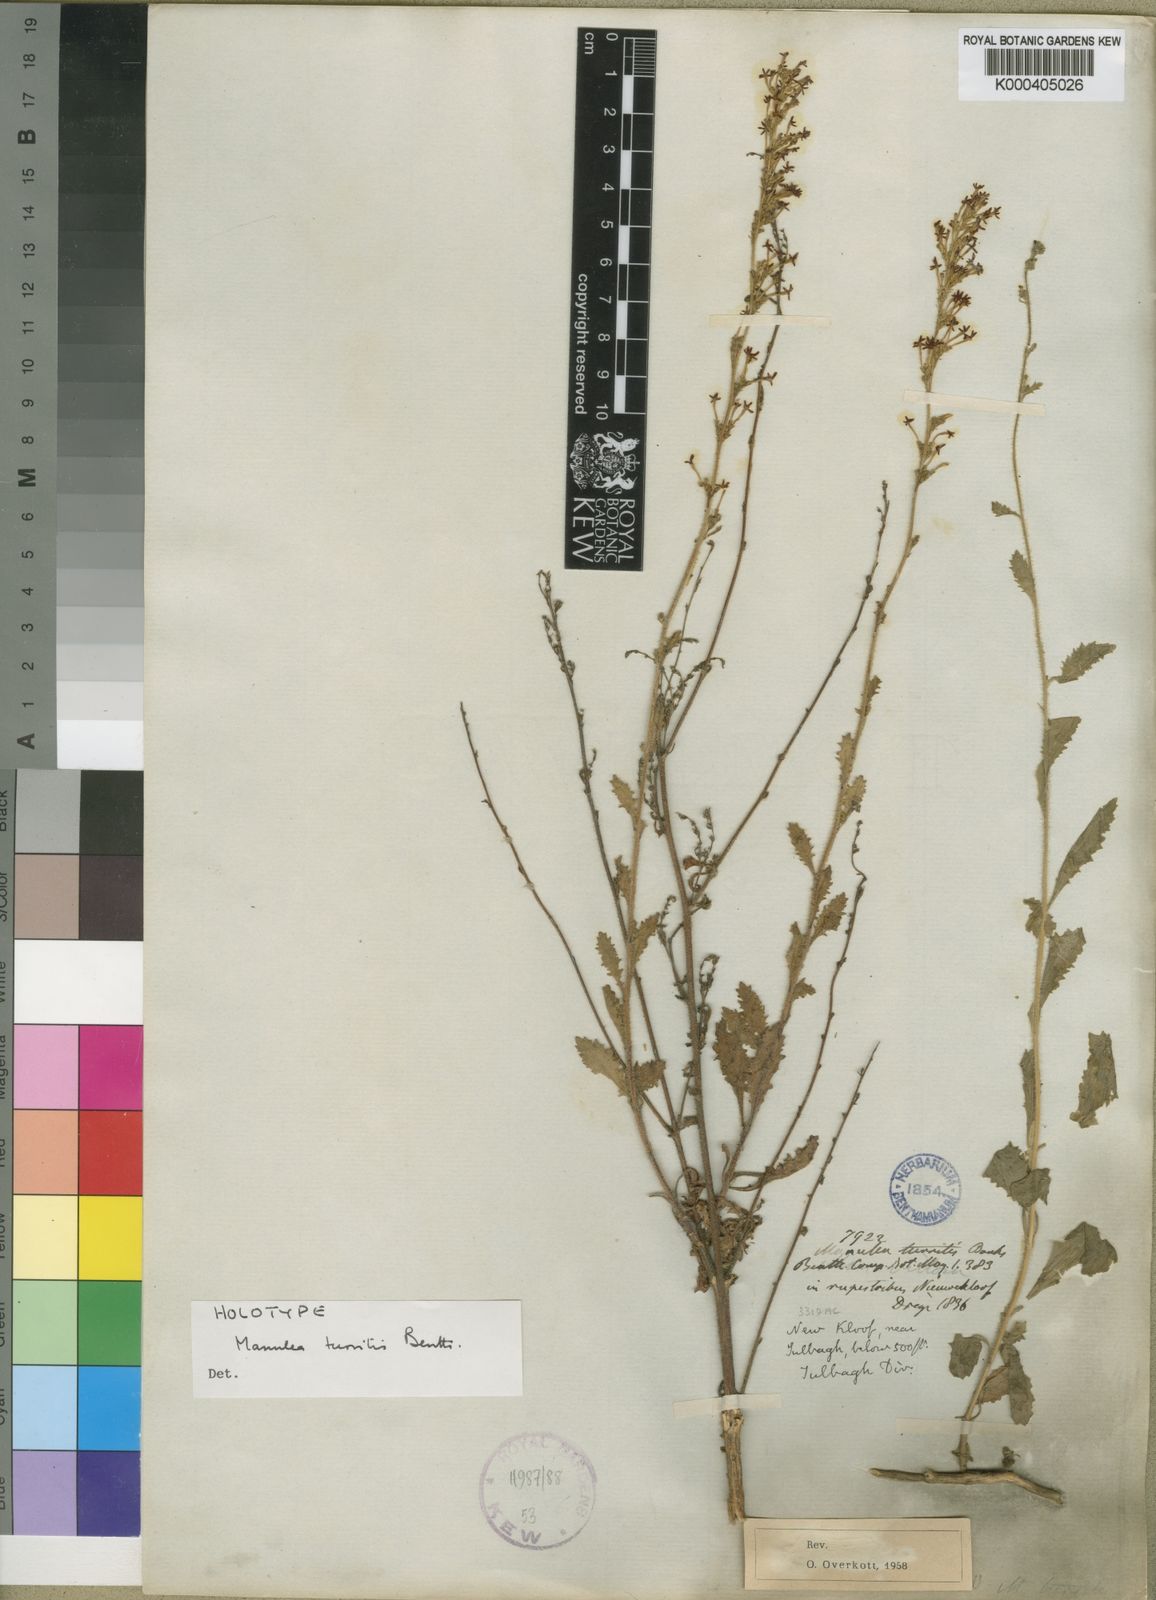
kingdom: Plantae
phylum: Tracheophyta
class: Magnoliopsida
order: Lamiales
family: Scrophulariaceae
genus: Manulea
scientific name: Manulea
